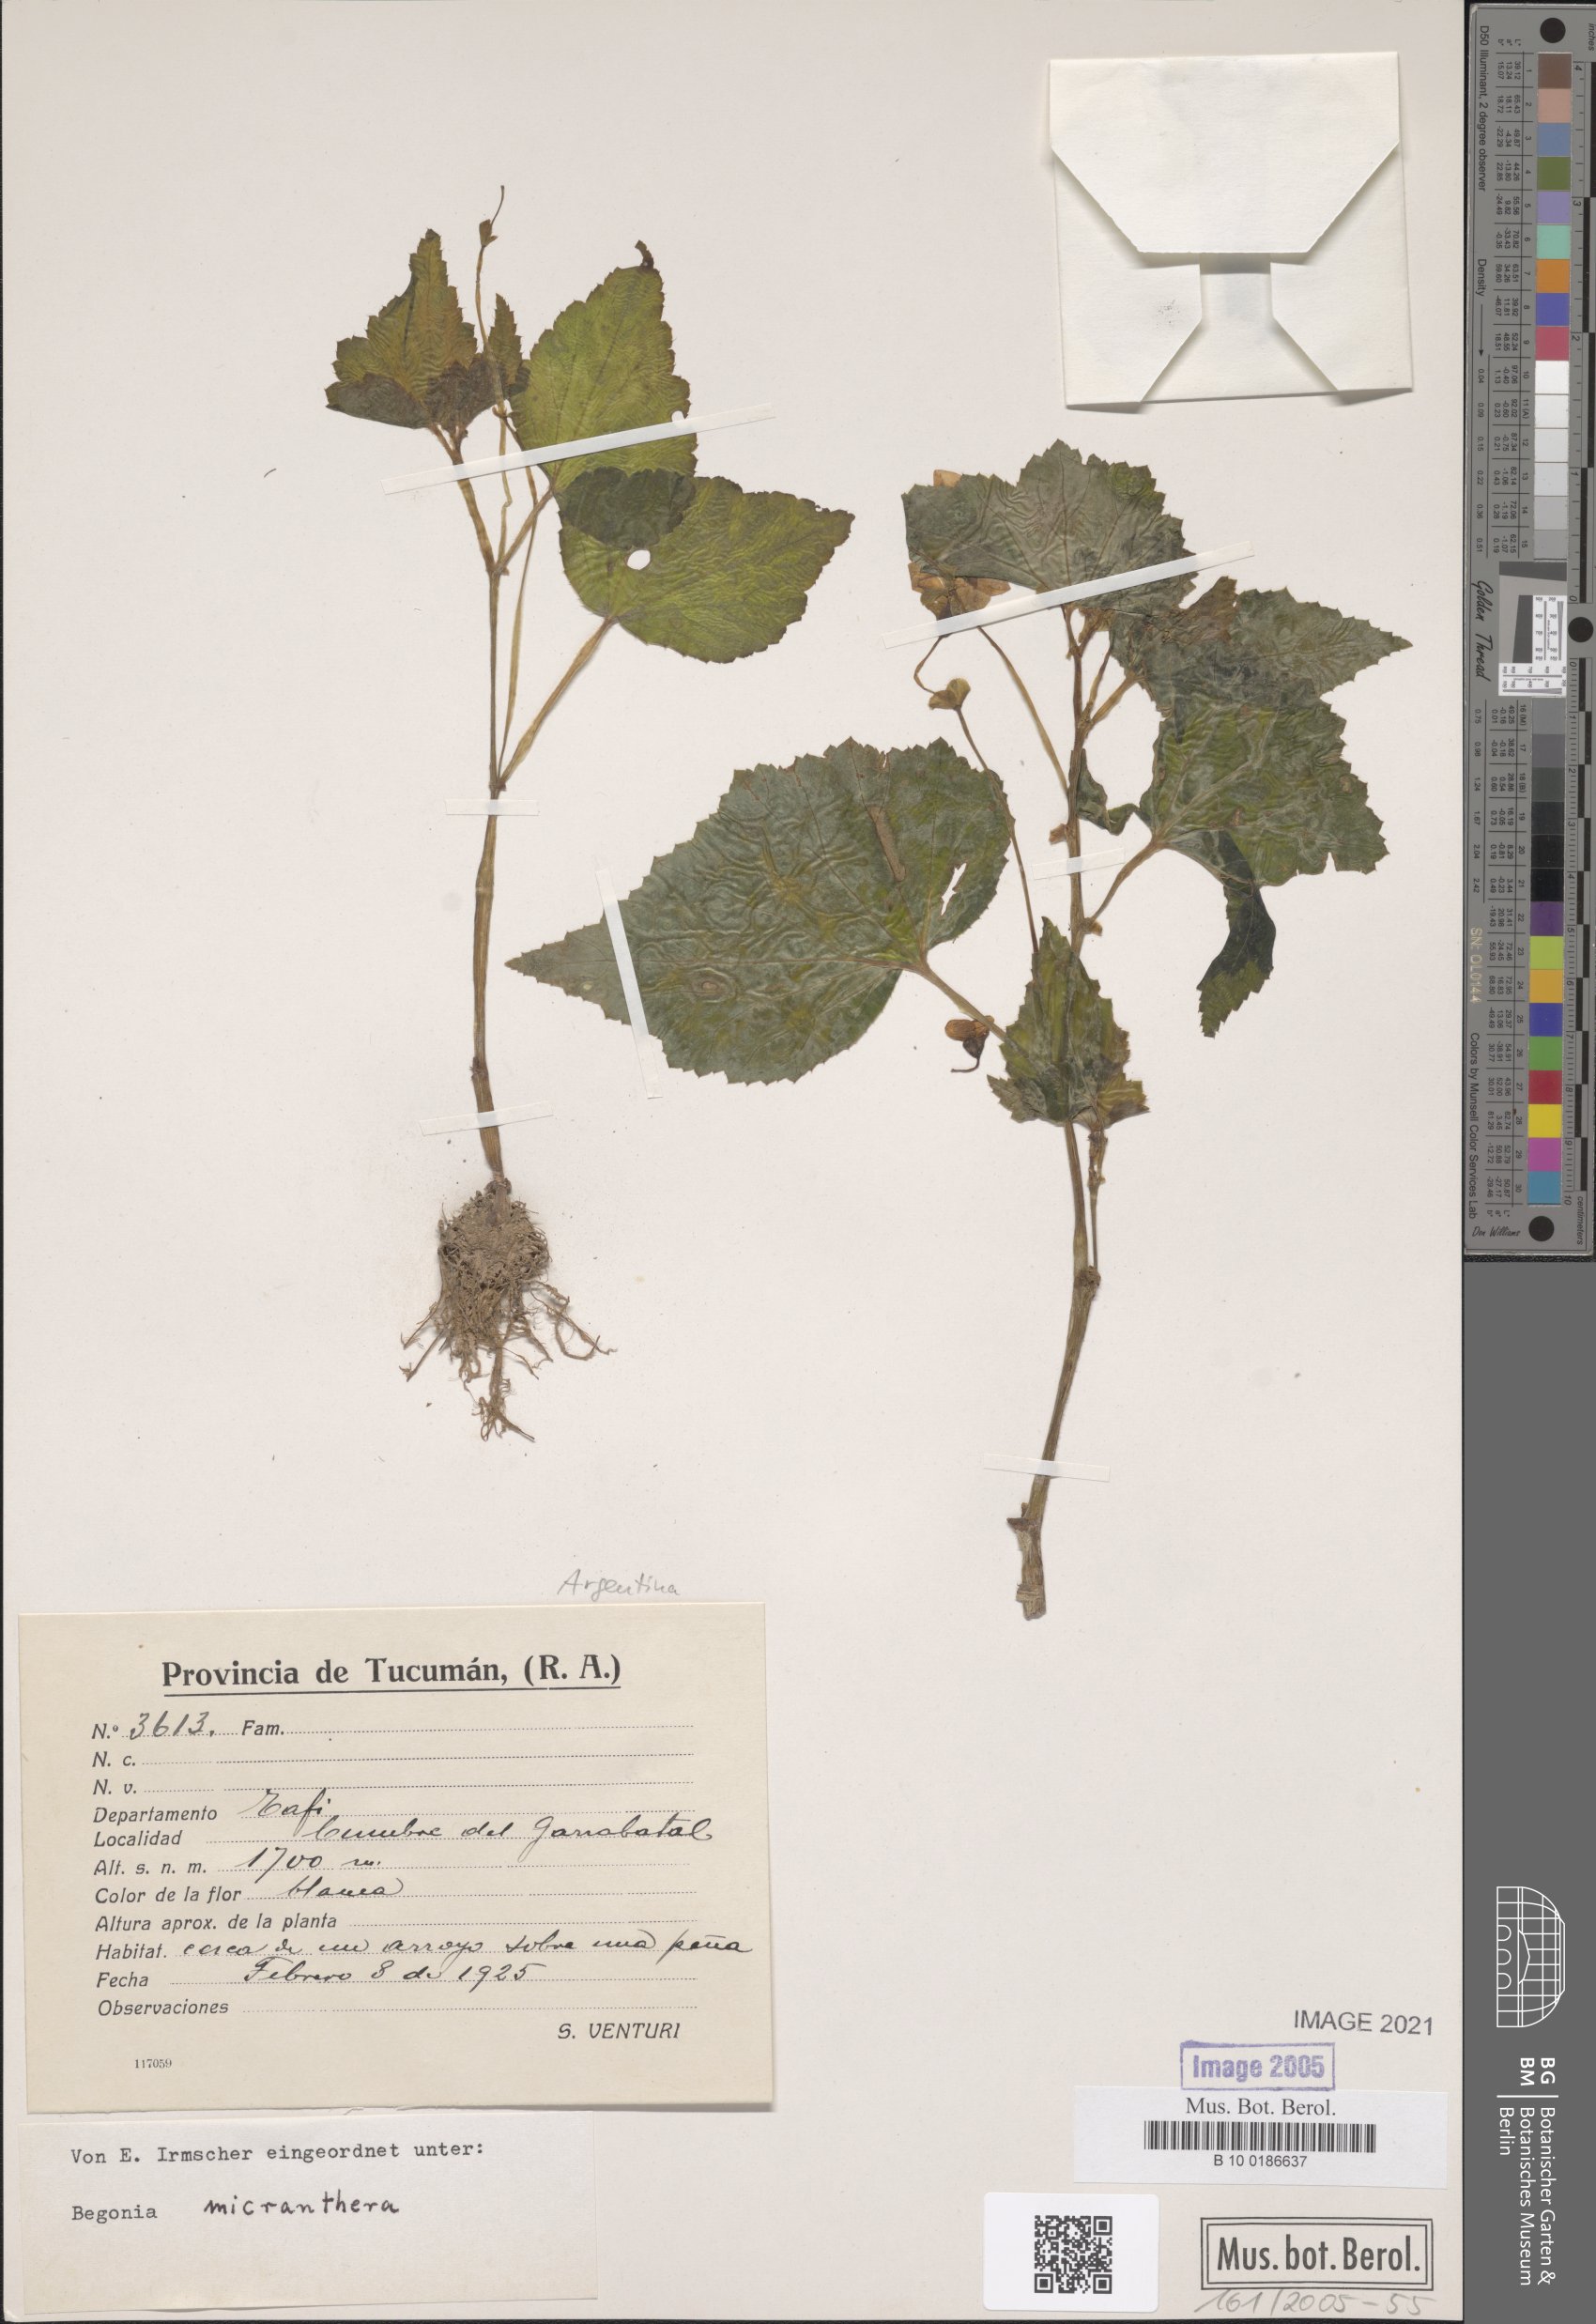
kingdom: Plantae
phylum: Tracheophyta
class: Magnoliopsida
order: Cucurbitales
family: Begoniaceae
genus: Begonia
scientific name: Begonia micranthera
